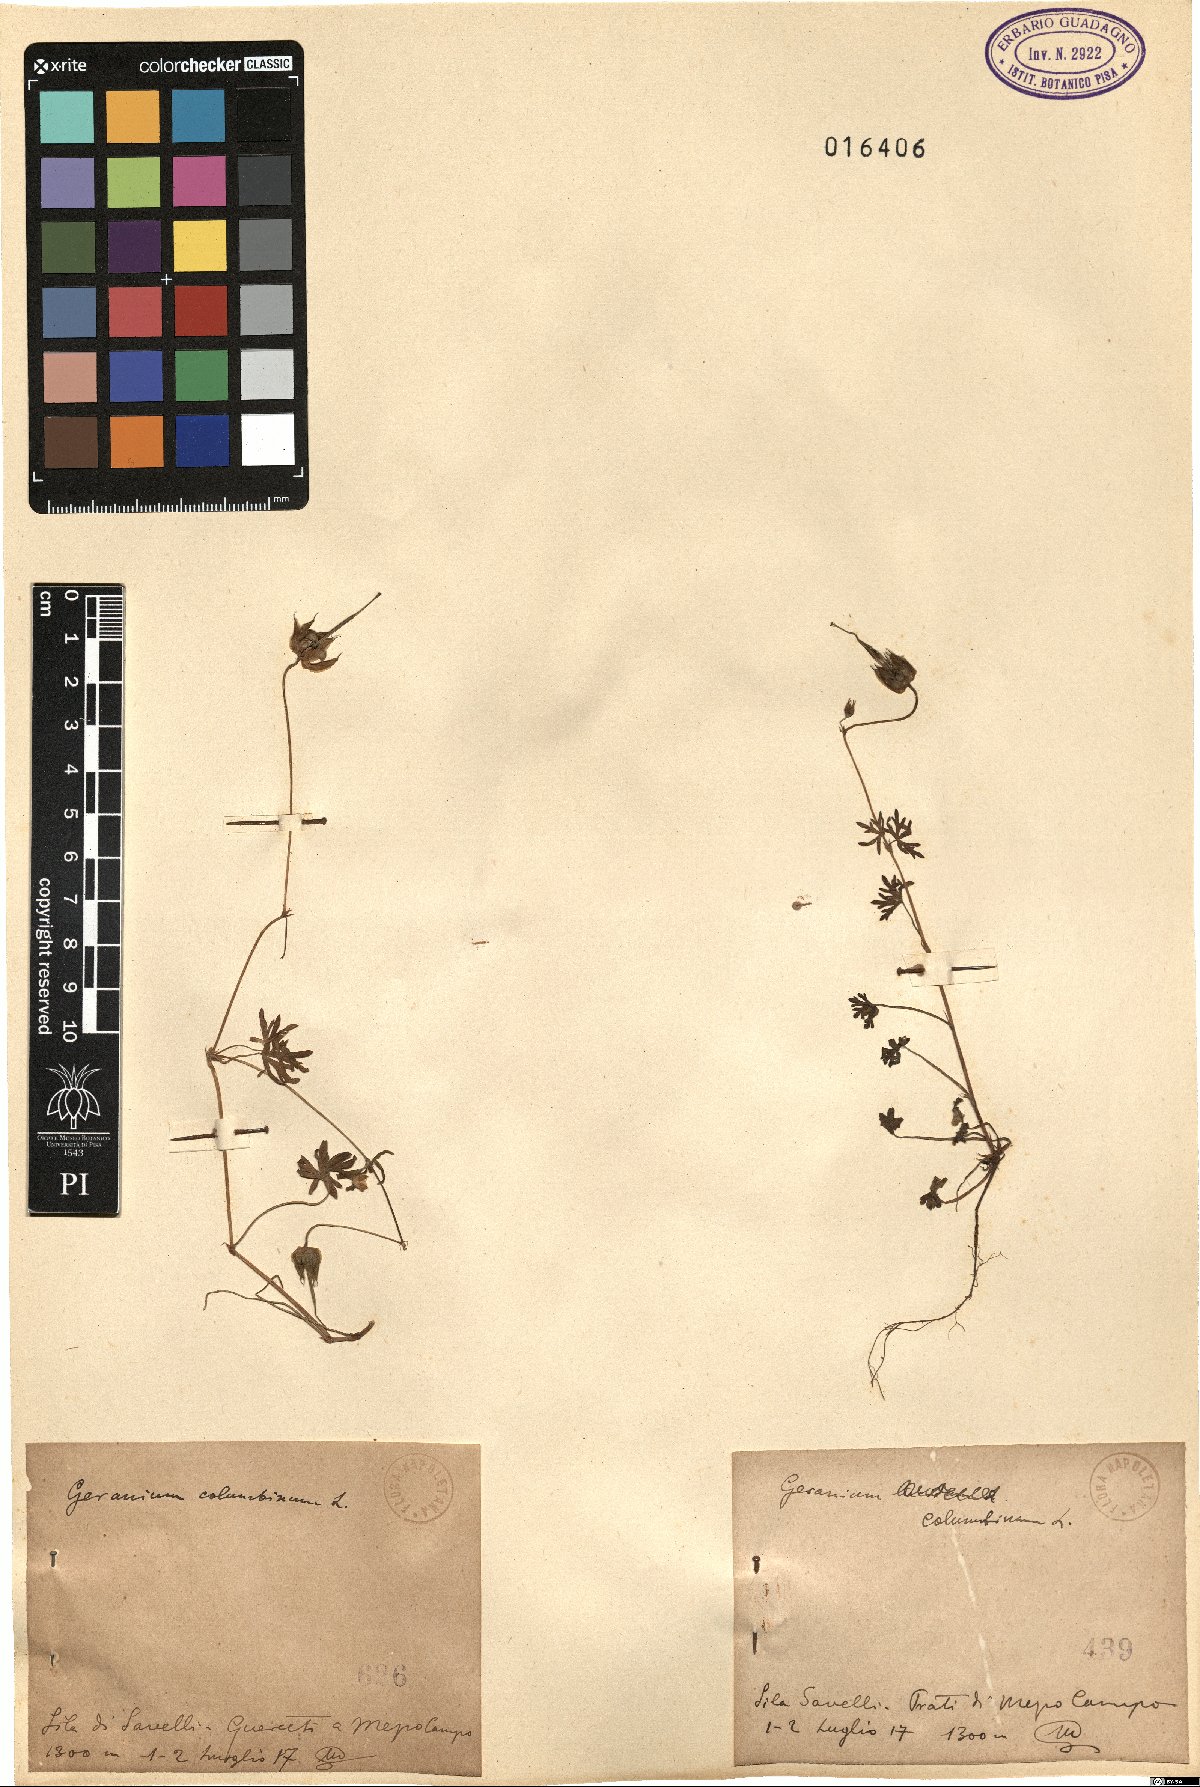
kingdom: Plantae
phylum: Tracheophyta
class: Magnoliopsida
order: Geraniales
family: Geraniaceae
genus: Geranium
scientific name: Geranium columbinum
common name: Long-stalked crane's-bill
